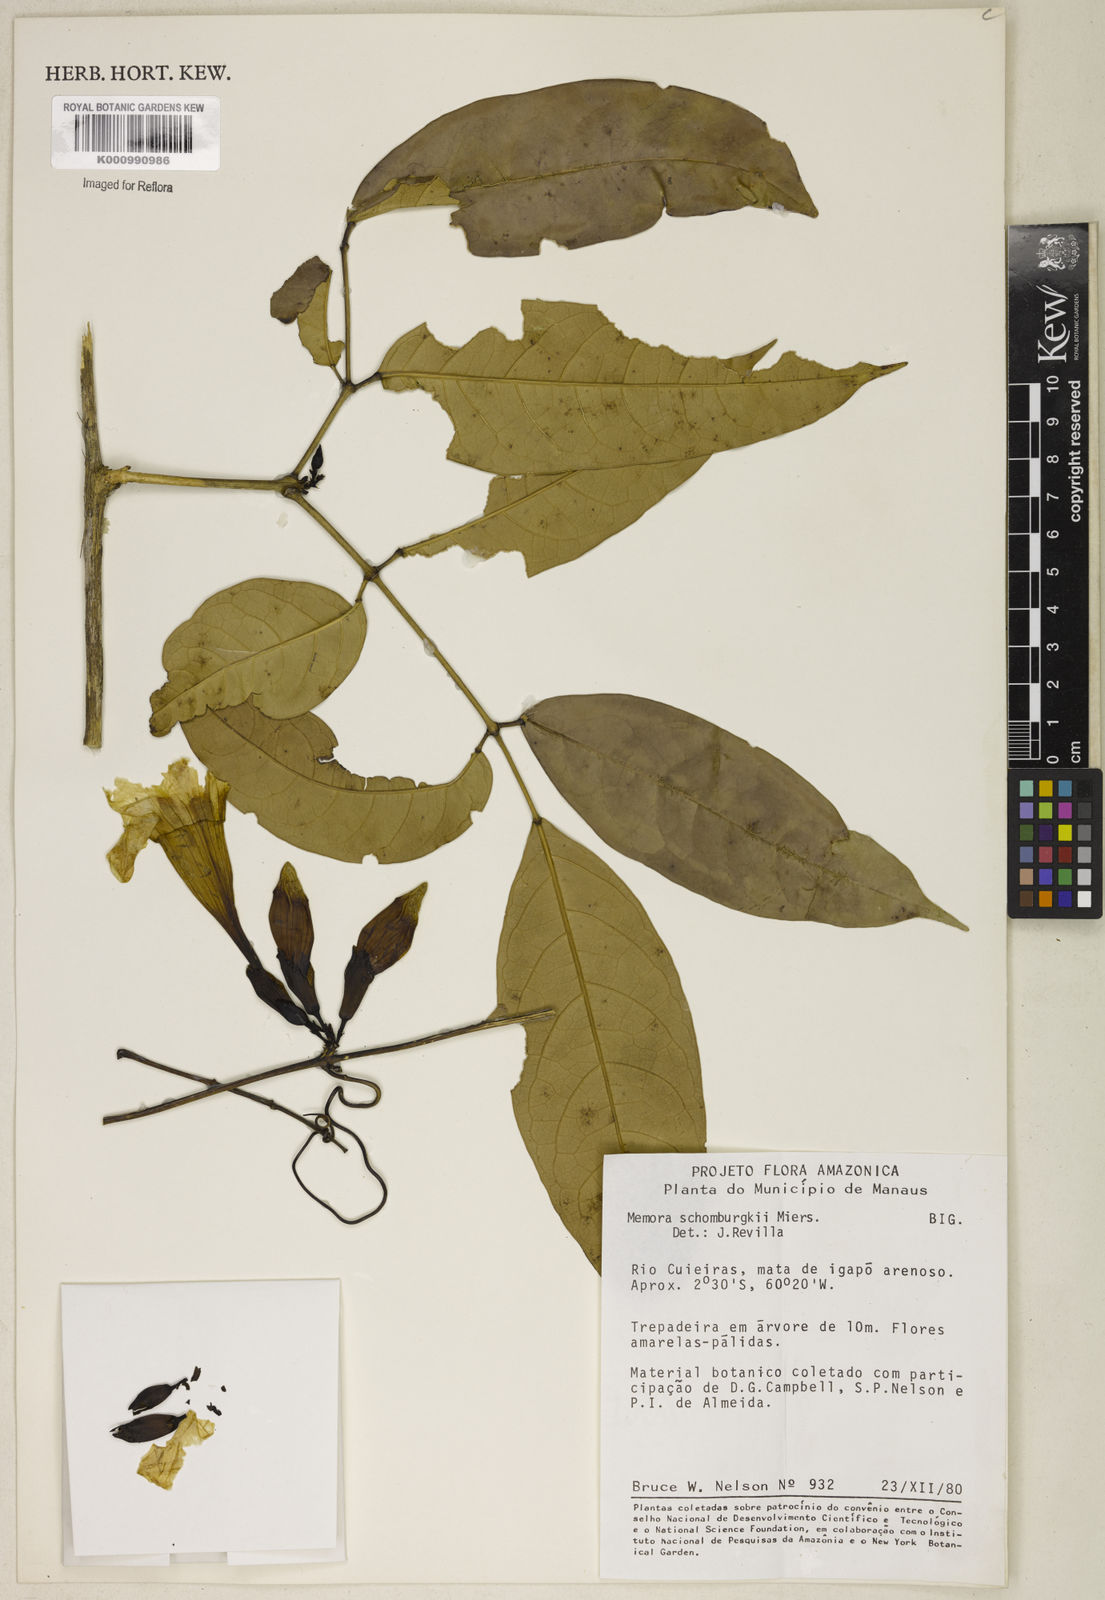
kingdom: Plantae
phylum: Tracheophyta
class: Magnoliopsida
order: Lamiales
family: Bignoniaceae
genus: Adenocalymma
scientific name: Adenocalymma schomburgkii
